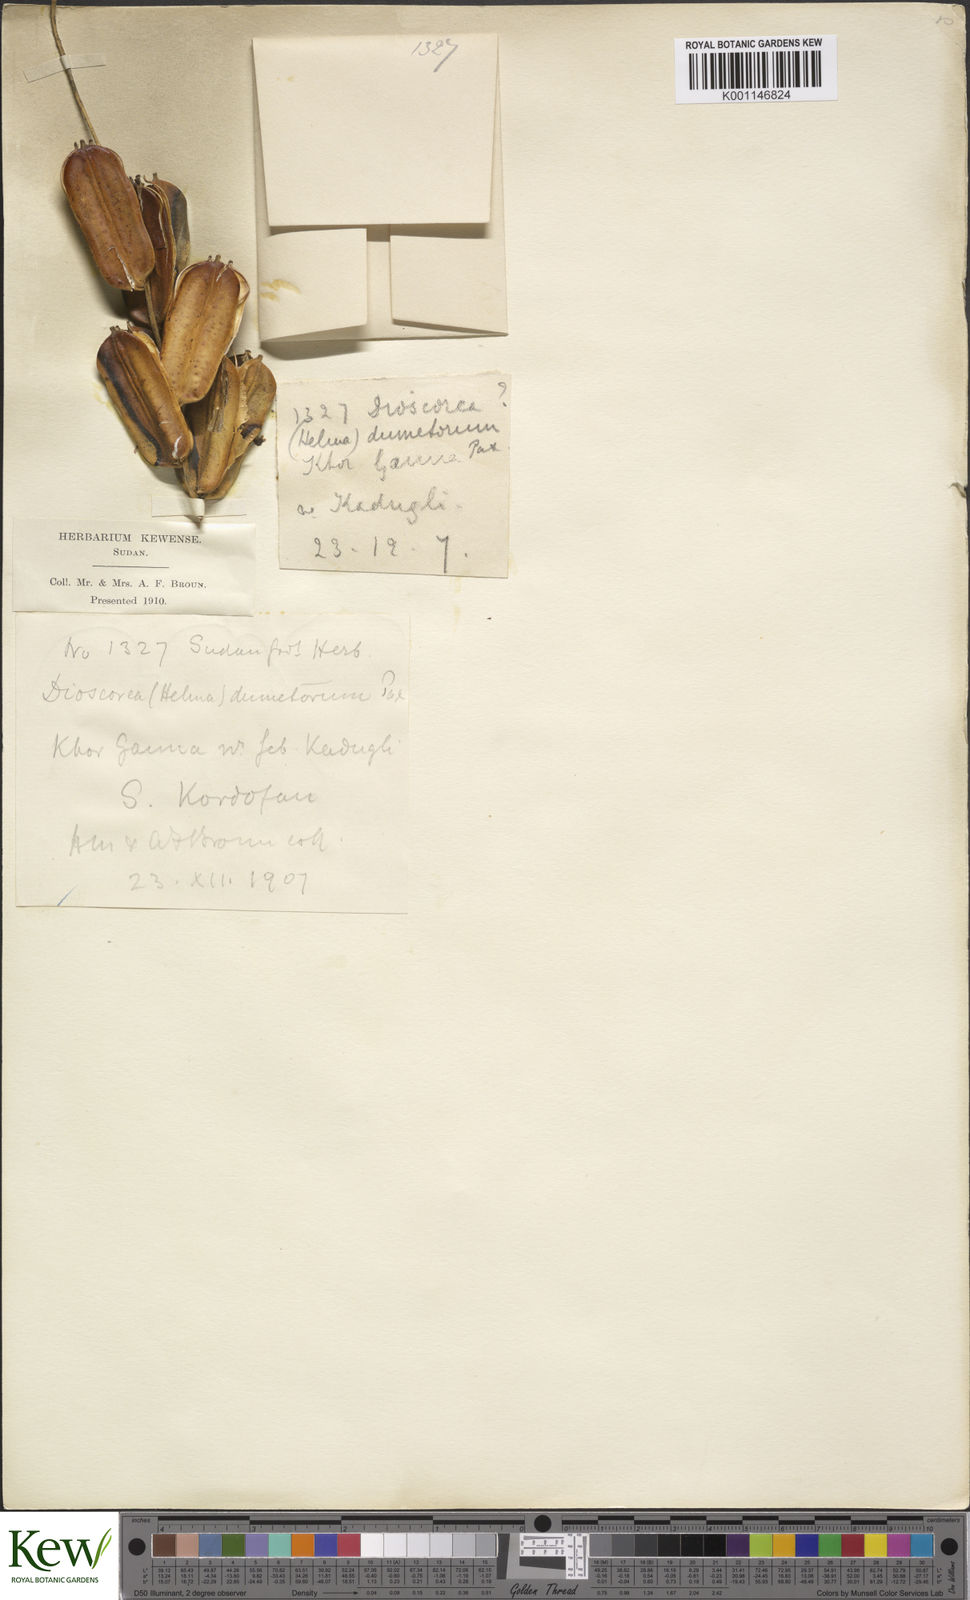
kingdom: Plantae
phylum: Tracheophyta
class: Liliopsida
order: Dioscoreales
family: Dioscoreaceae
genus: Dioscorea
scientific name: Dioscorea dumetorum
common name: African bitter yam
